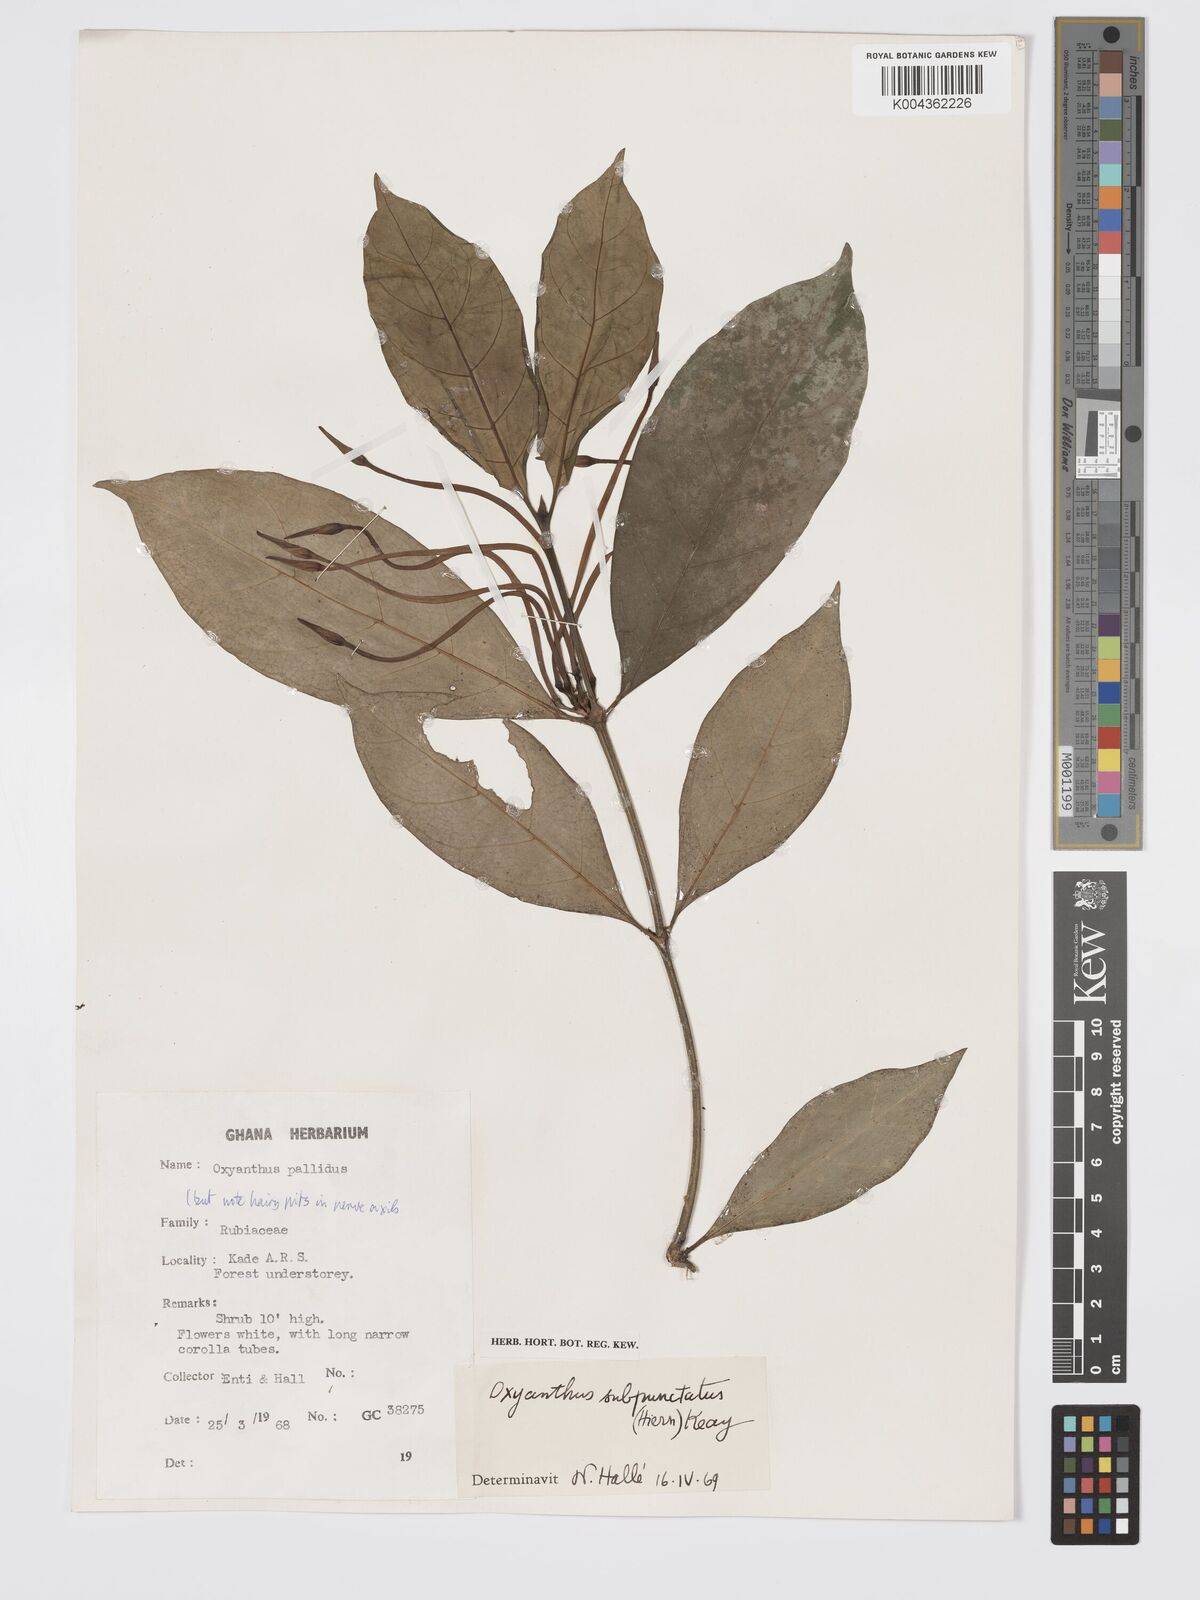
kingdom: Plantae
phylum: Tracheophyta
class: Magnoliopsida
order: Gentianales
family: Rubiaceae
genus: Oxyanthus
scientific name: Oxyanthus subpunctatus
